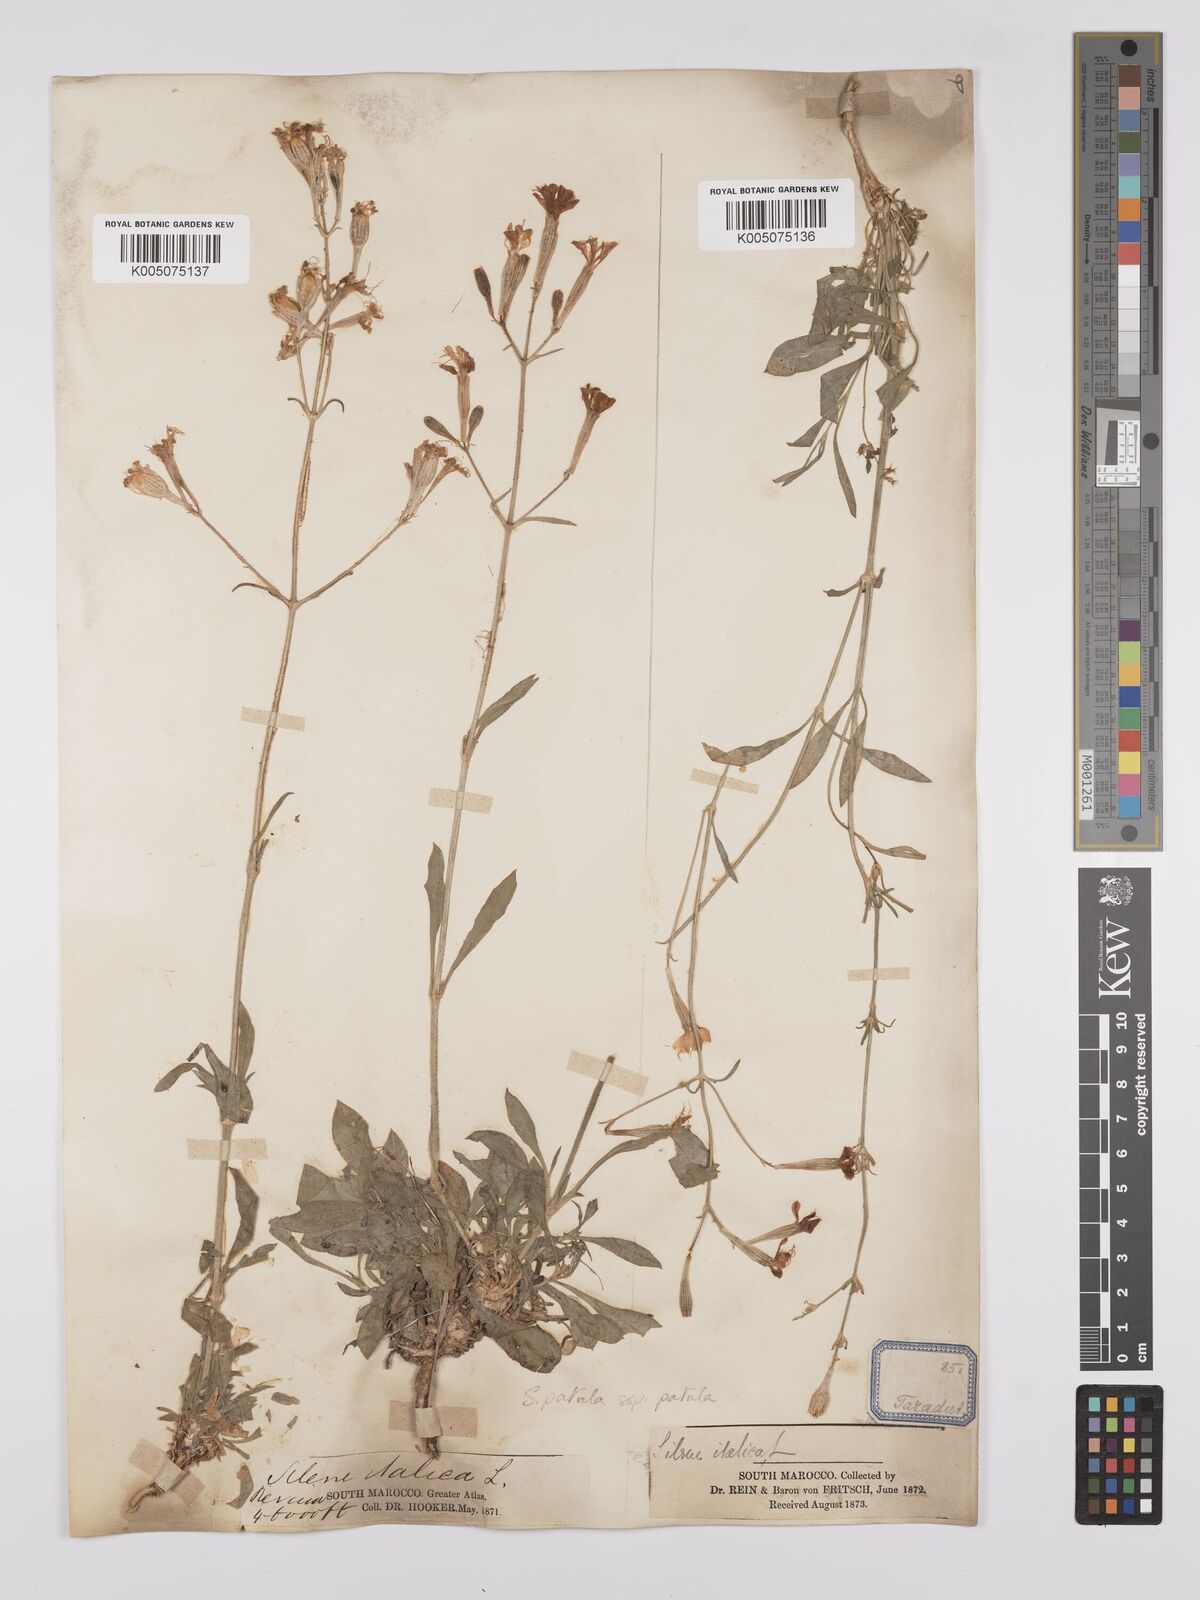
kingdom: Plantae
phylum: Tracheophyta
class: Magnoliopsida
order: Caryophyllales
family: Caryophyllaceae
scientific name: Caryophyllaceae
